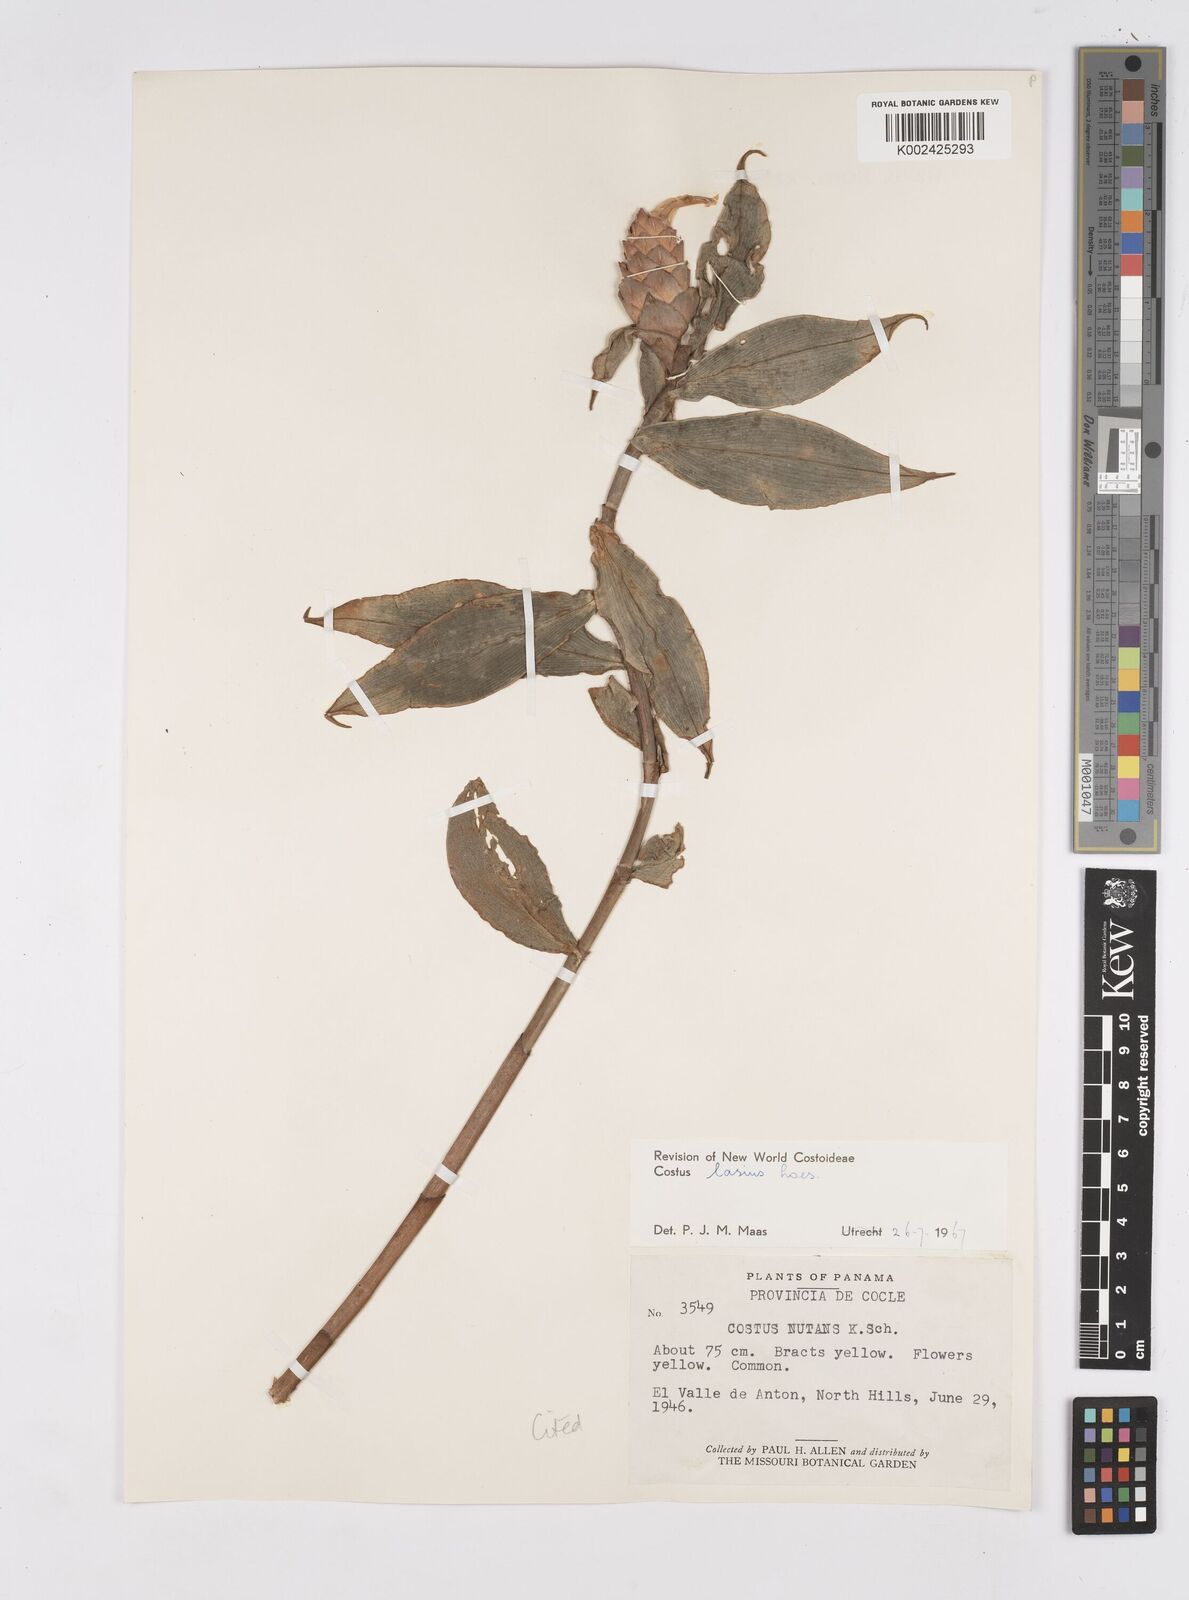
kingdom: Plantae
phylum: Tracheophyta
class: Liliopsida
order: Zingiberales
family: Costaceae
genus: Costus
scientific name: Costus lasius
